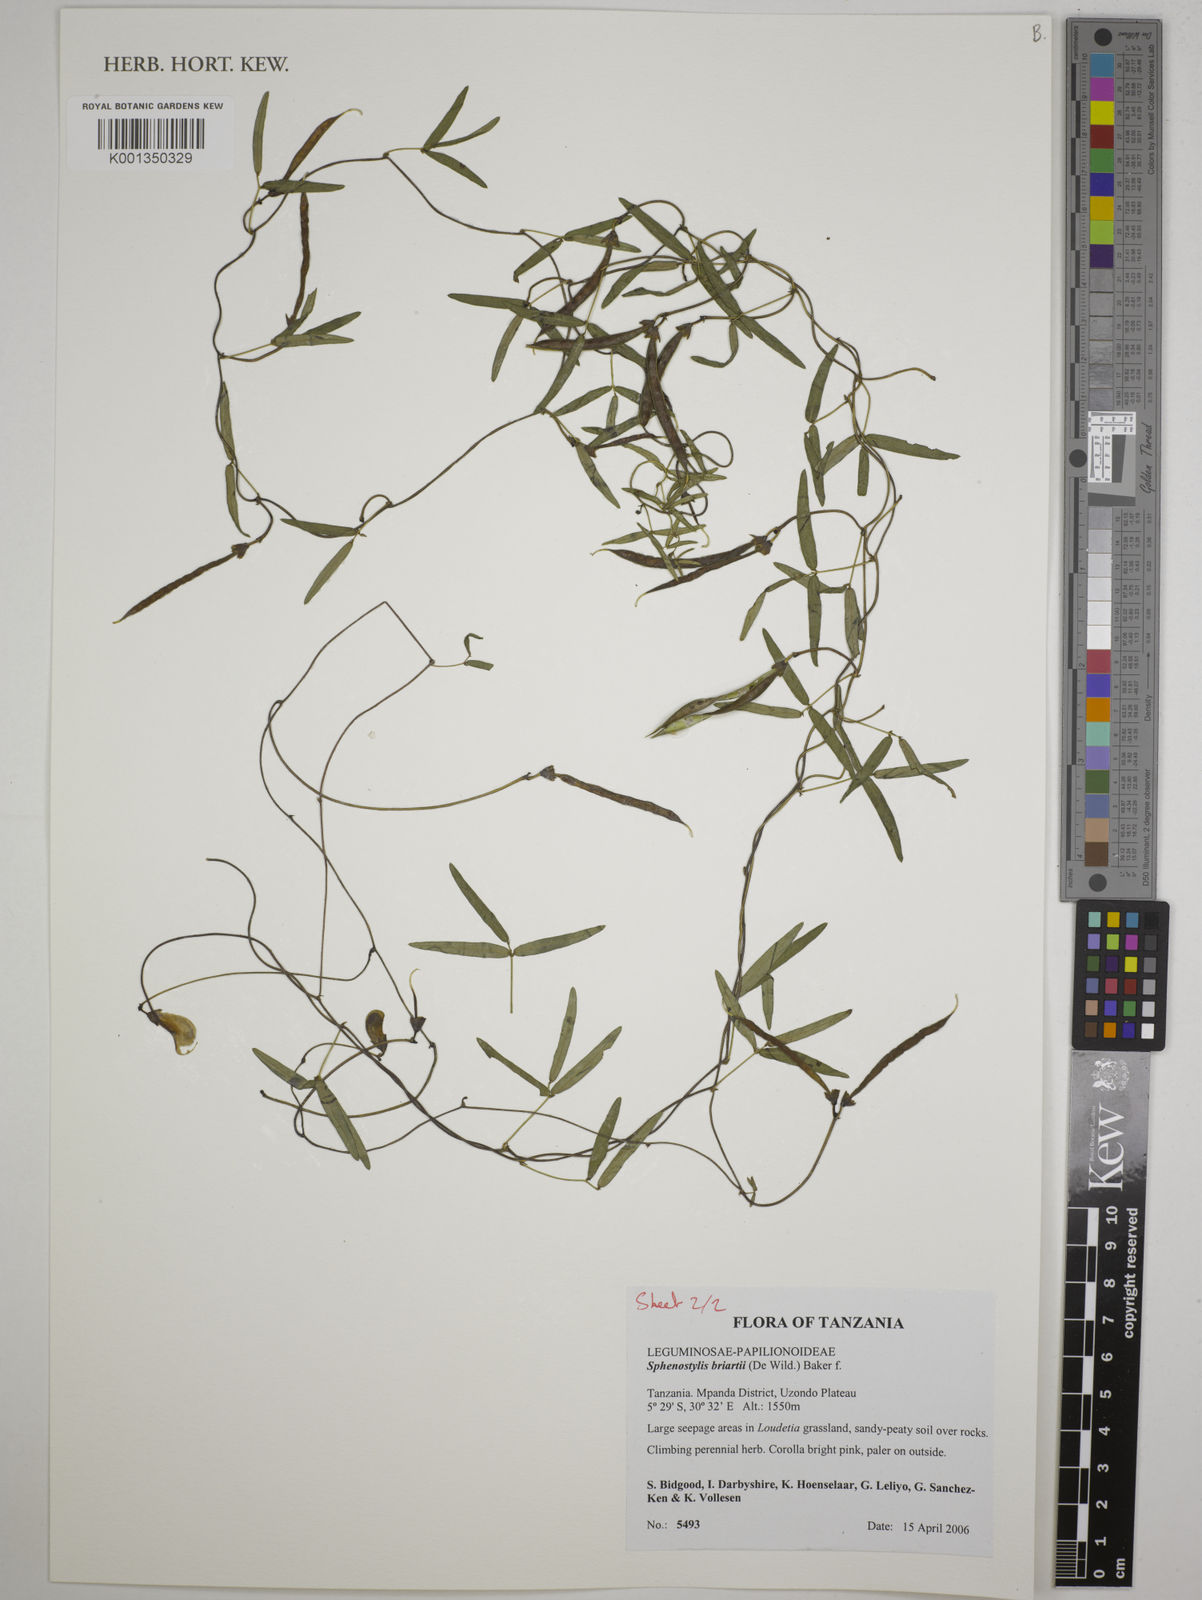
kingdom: Plantae
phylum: Tracheophyta
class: Magnoliopsida
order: Fabales
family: Fabaceae
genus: Sphenostylis
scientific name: Sphenostylis briartii
